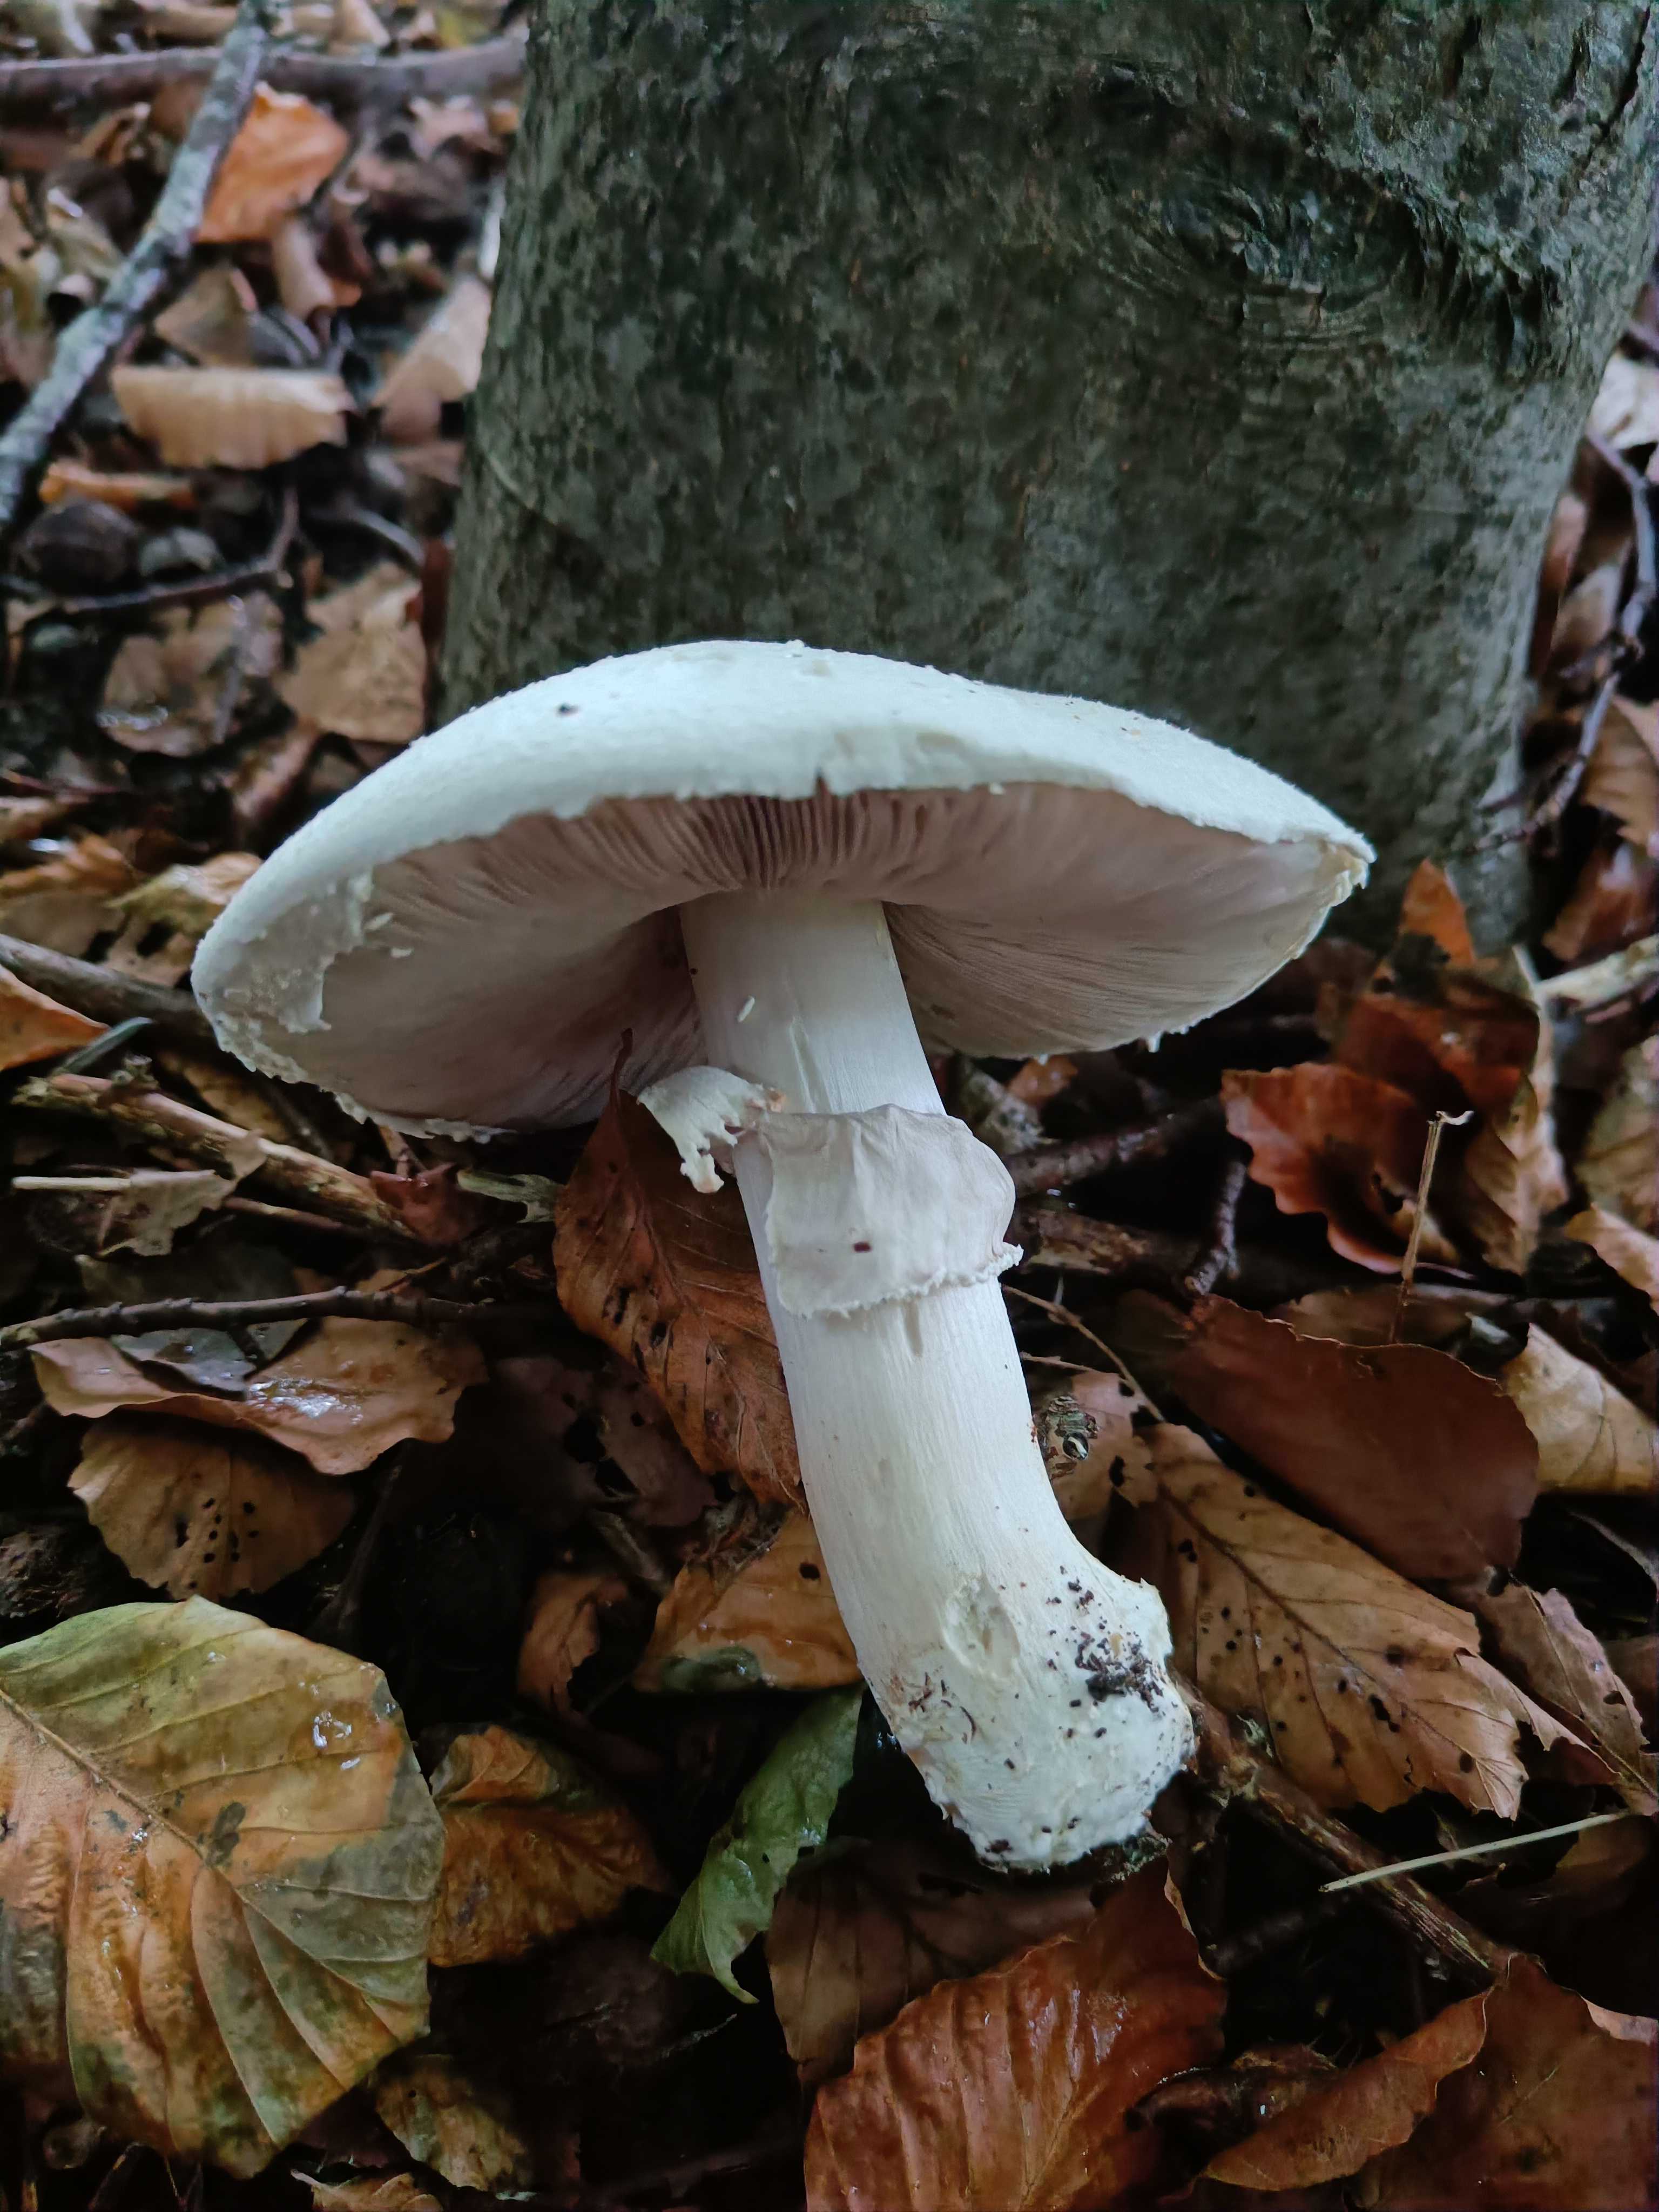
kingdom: Fungi
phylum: Basidiomycota
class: Agaricomycetes
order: Agaricales
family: Agaricaceae
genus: Agaricus
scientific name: Agaricus
